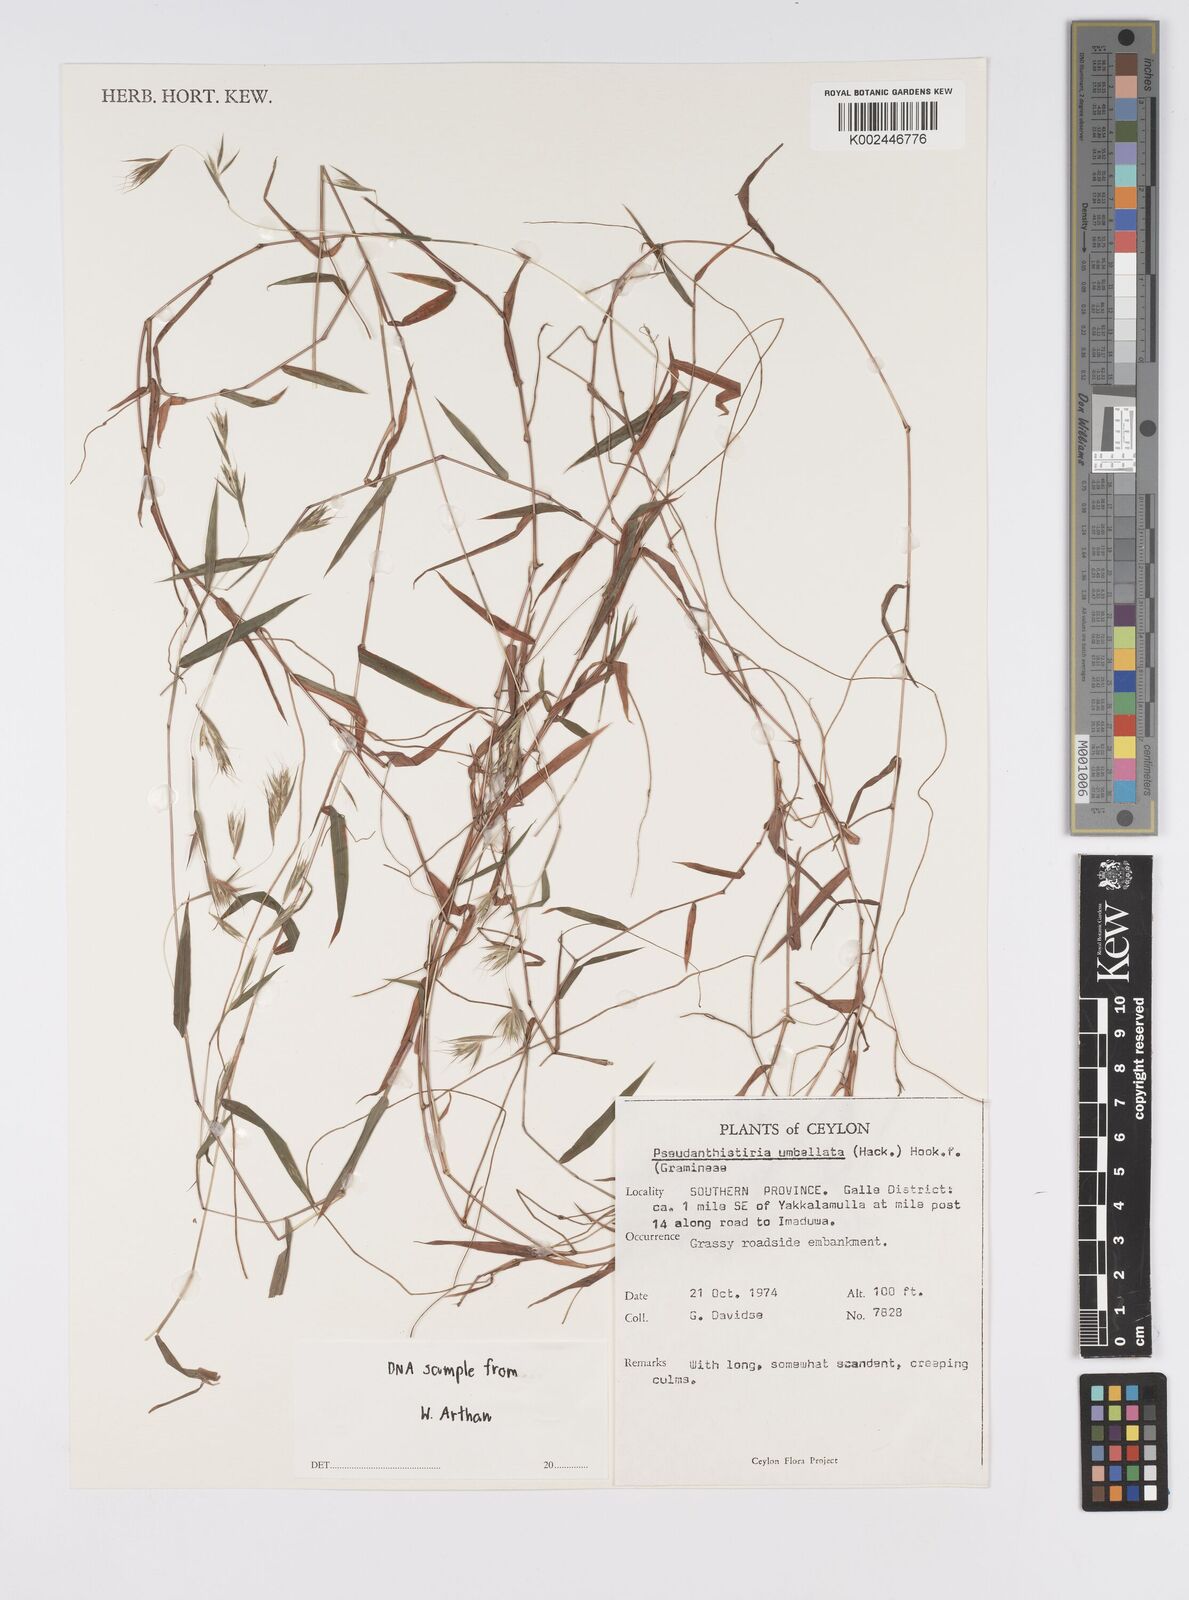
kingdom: Plantae
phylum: Tracheophyta
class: Liliopsida
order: Poales
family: Poaceae
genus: Pseudanthistiria
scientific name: Pseudanthistiria umbellata
